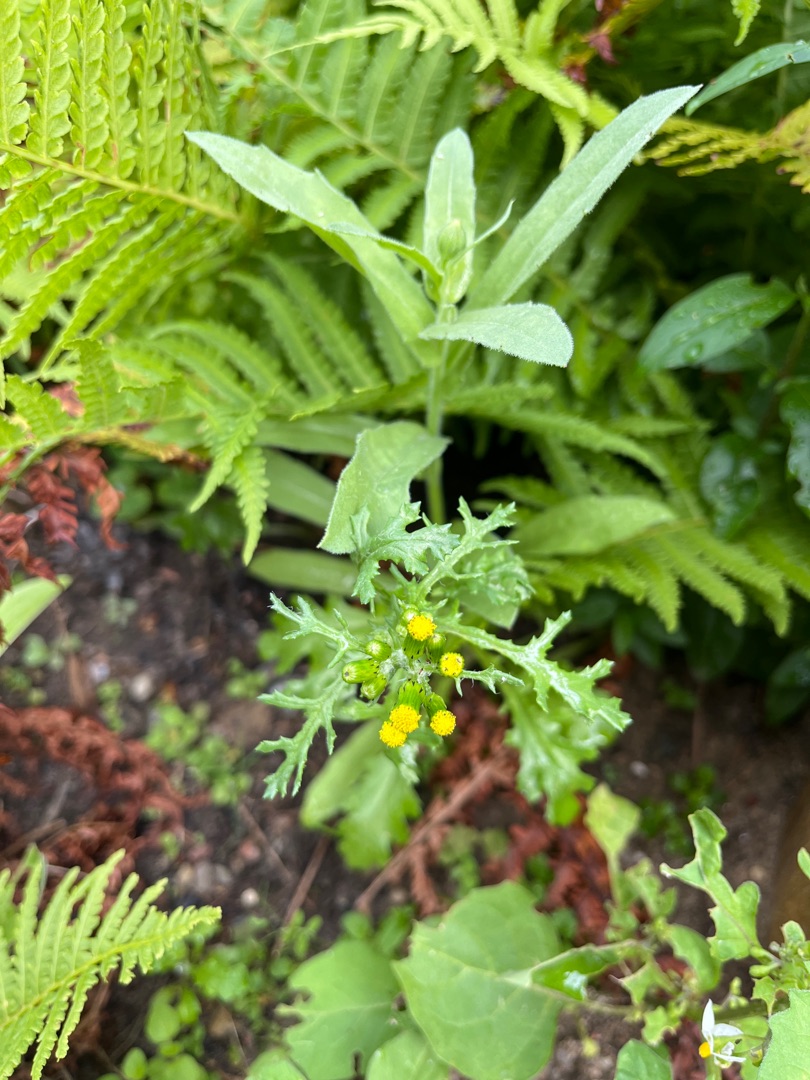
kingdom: Plantae
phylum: Tracheophyta
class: Magnoliopsida
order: Asterales
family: Asteraceae
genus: Senecio
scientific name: Senecio vulgaris
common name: Almindelig brandbæger
